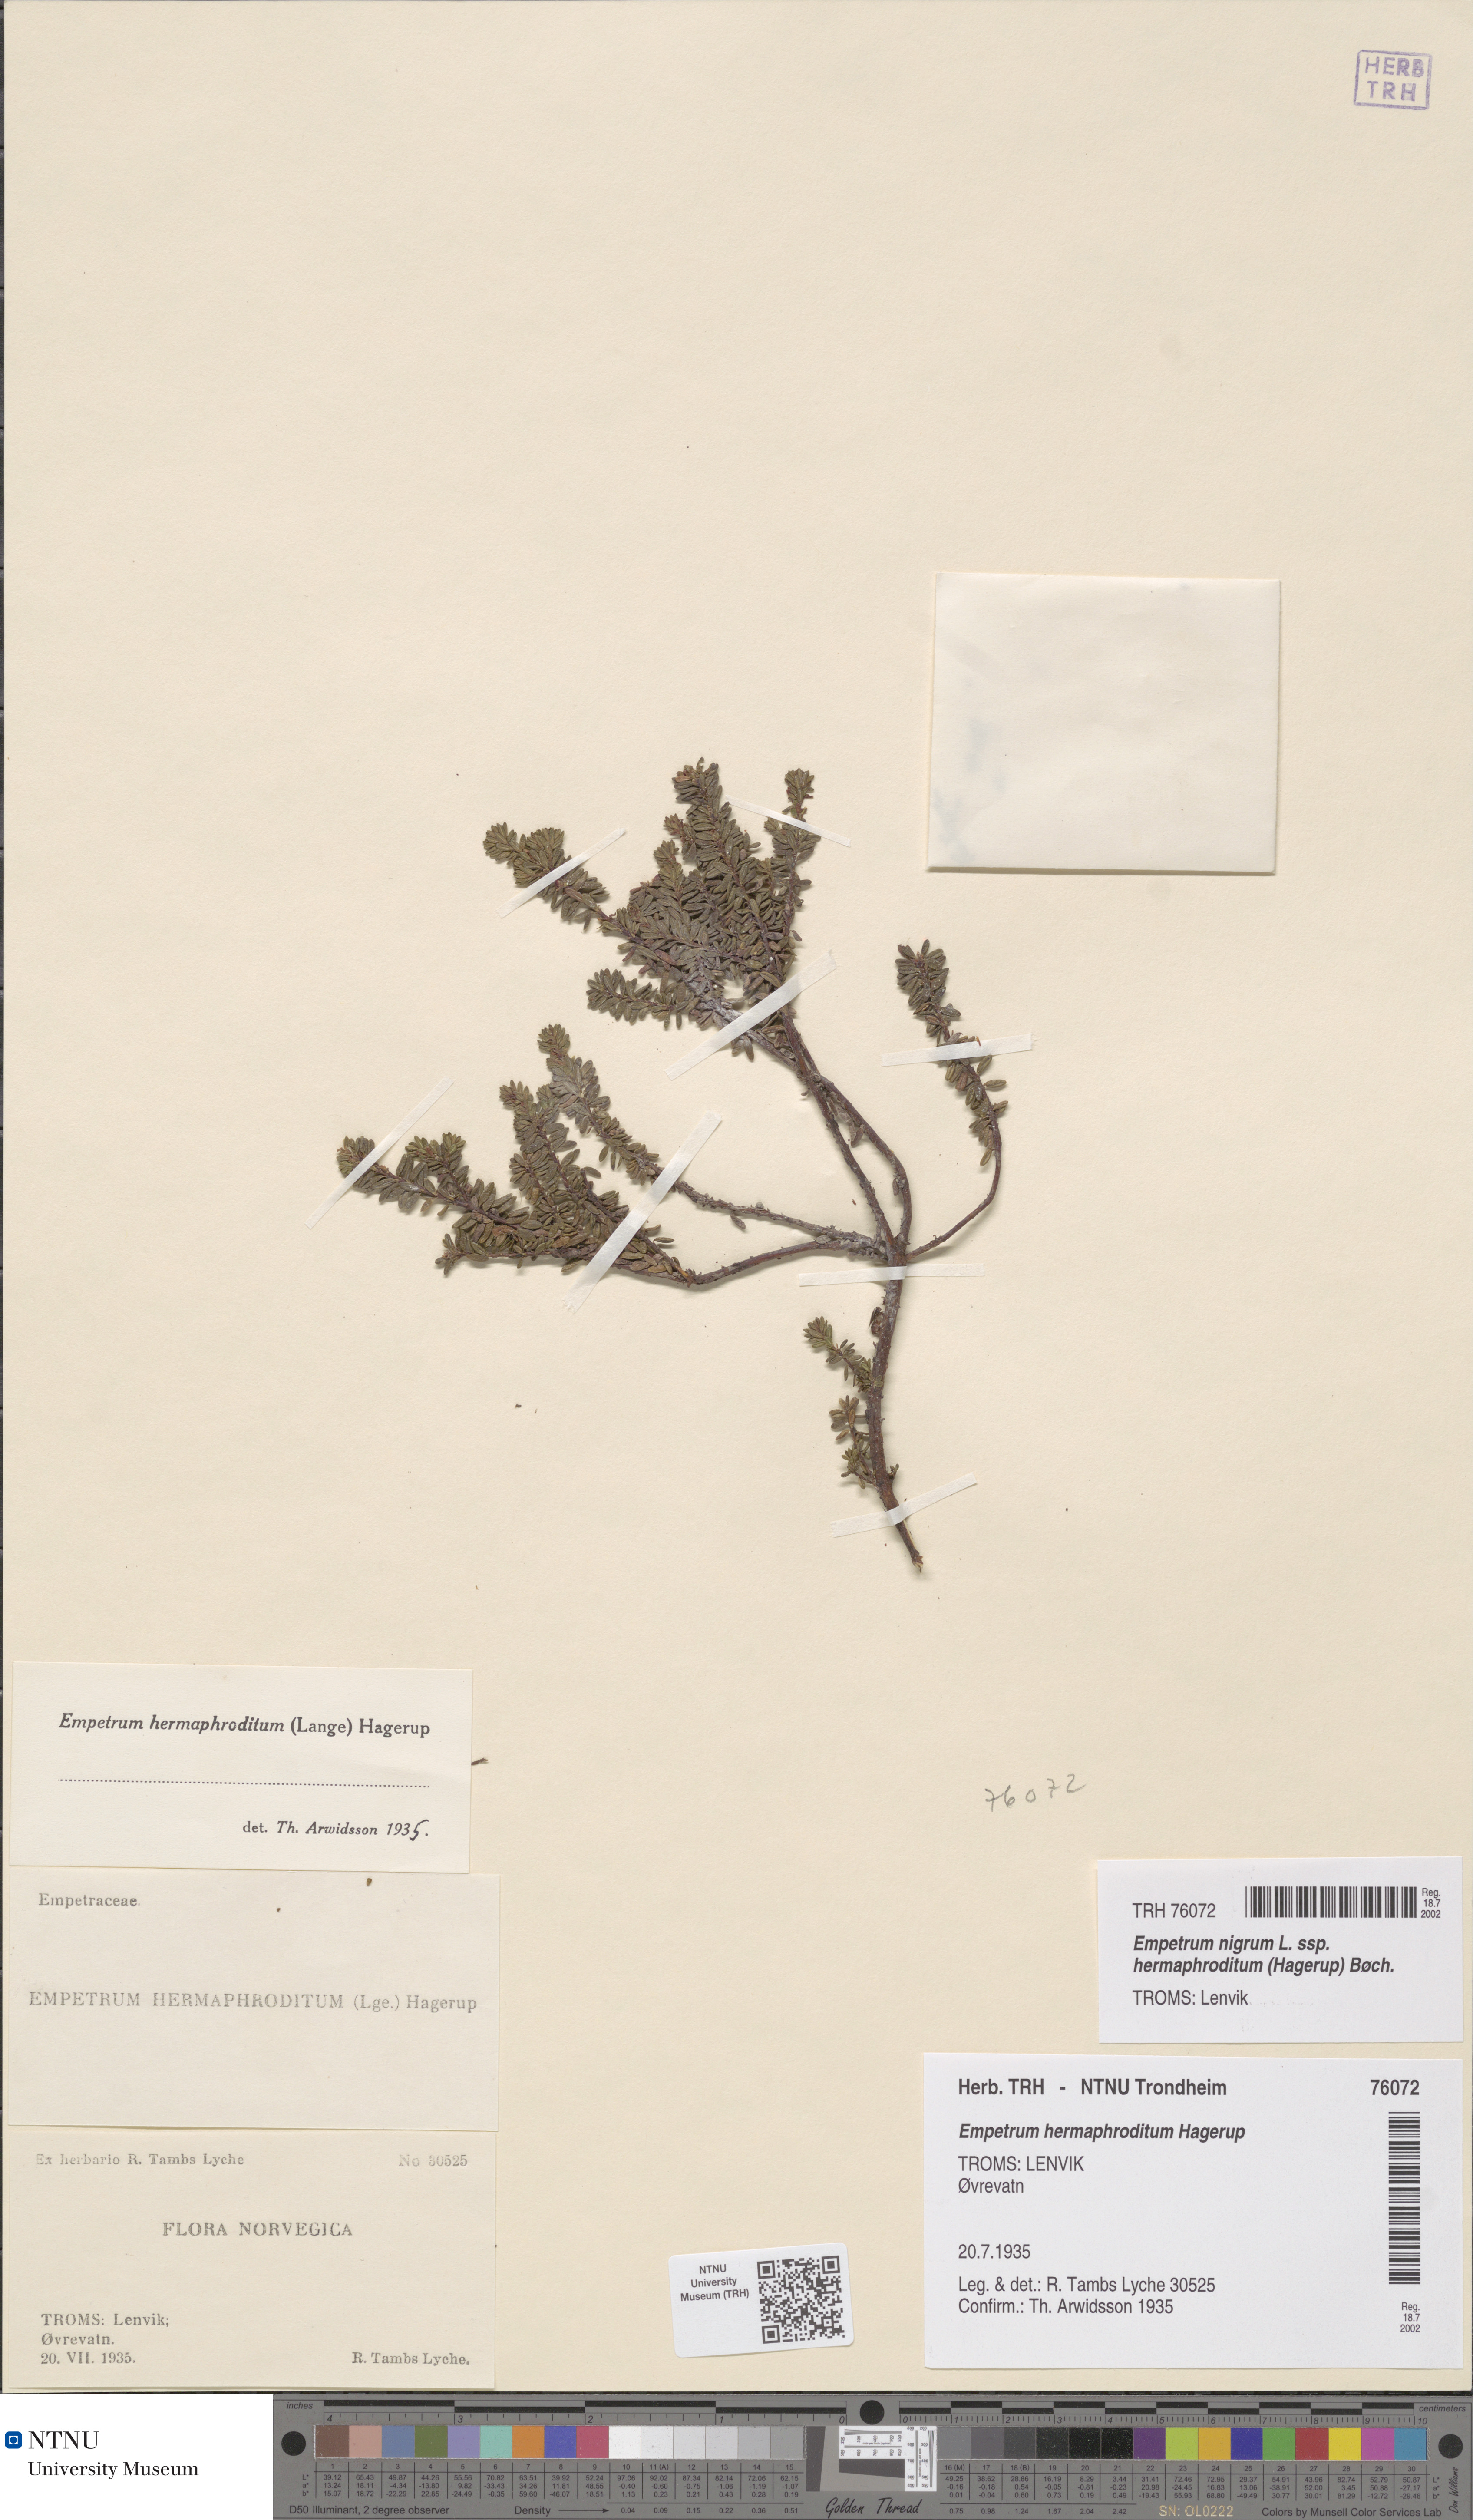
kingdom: Plantae
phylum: Tracheophyta
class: Magnoliopsida
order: Ericales
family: Ericaceae
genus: Empetrum
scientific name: Empetrum hermaphroditum
